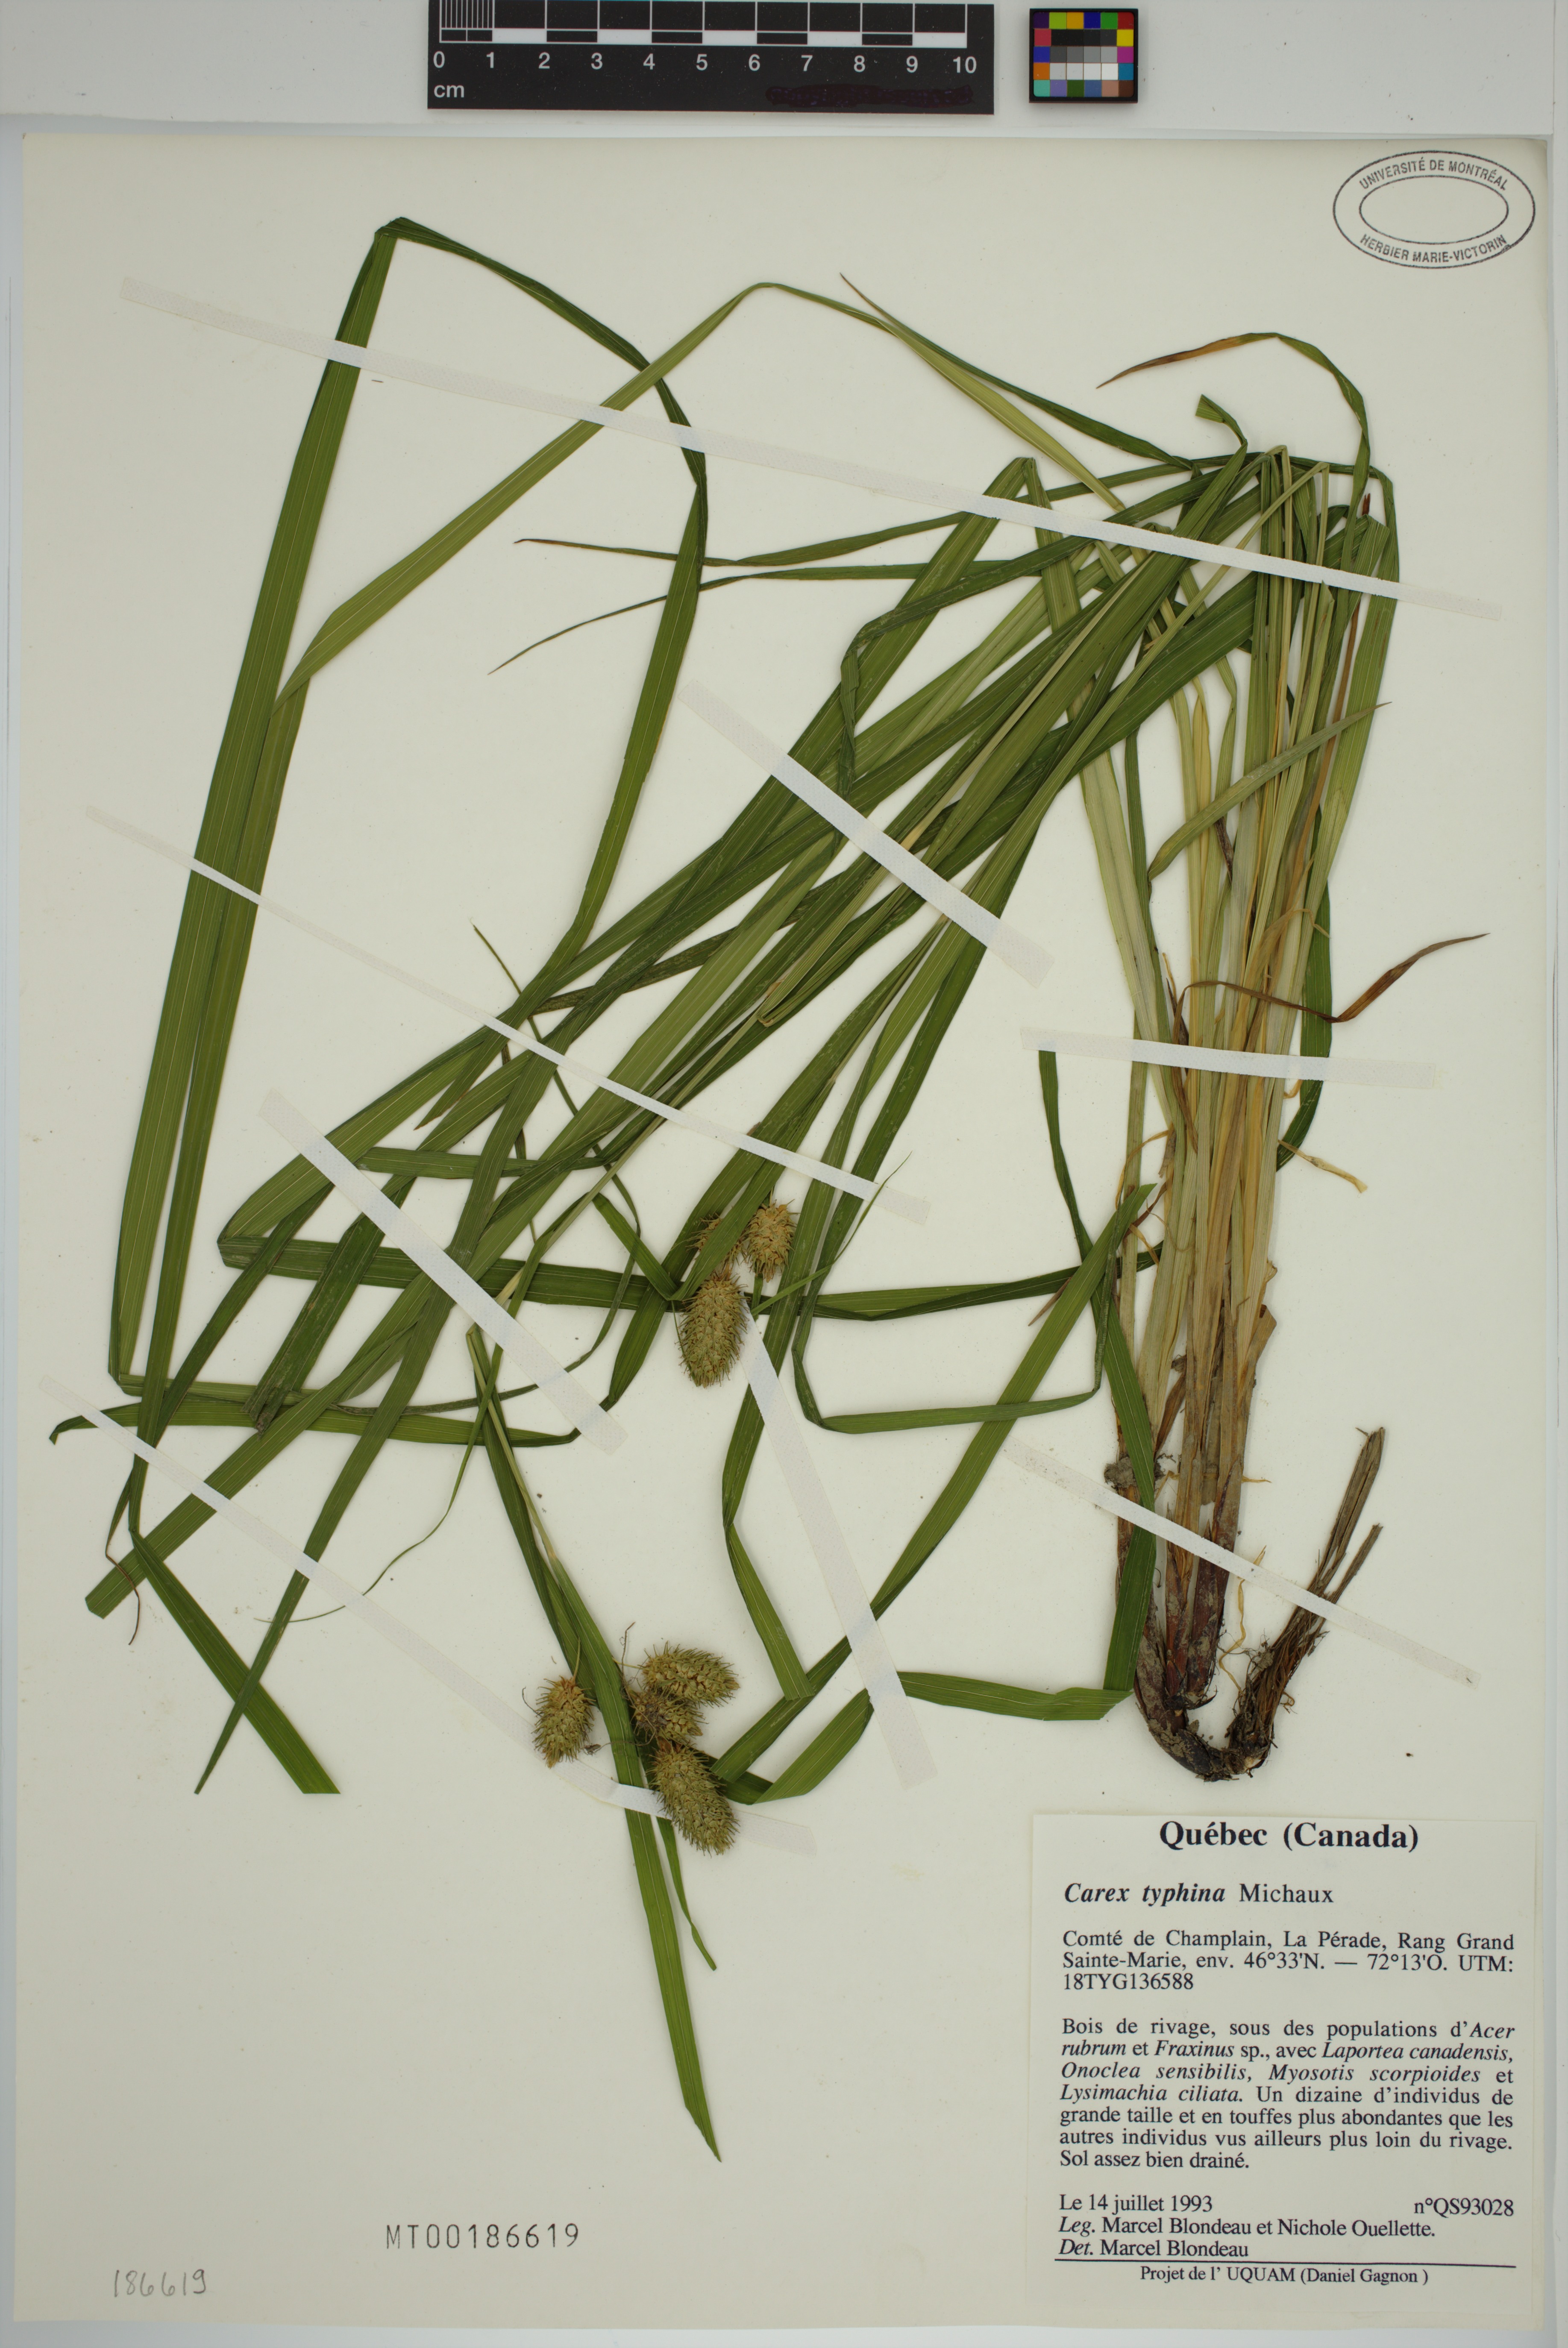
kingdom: Plantae
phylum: Tracheophyta
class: Liliopsida
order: Poales
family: Cyperaceae
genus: Carex
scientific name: Carex typhina
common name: Cattail sedge
